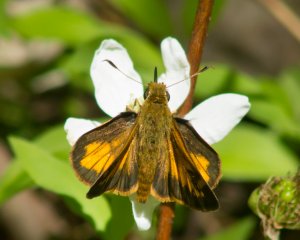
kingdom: Animalia
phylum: Arthropoda
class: Insecta
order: Lepidoptera
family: Hesperiidae
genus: Lon
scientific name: Lon hobomok
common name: Hobomok Skipper
